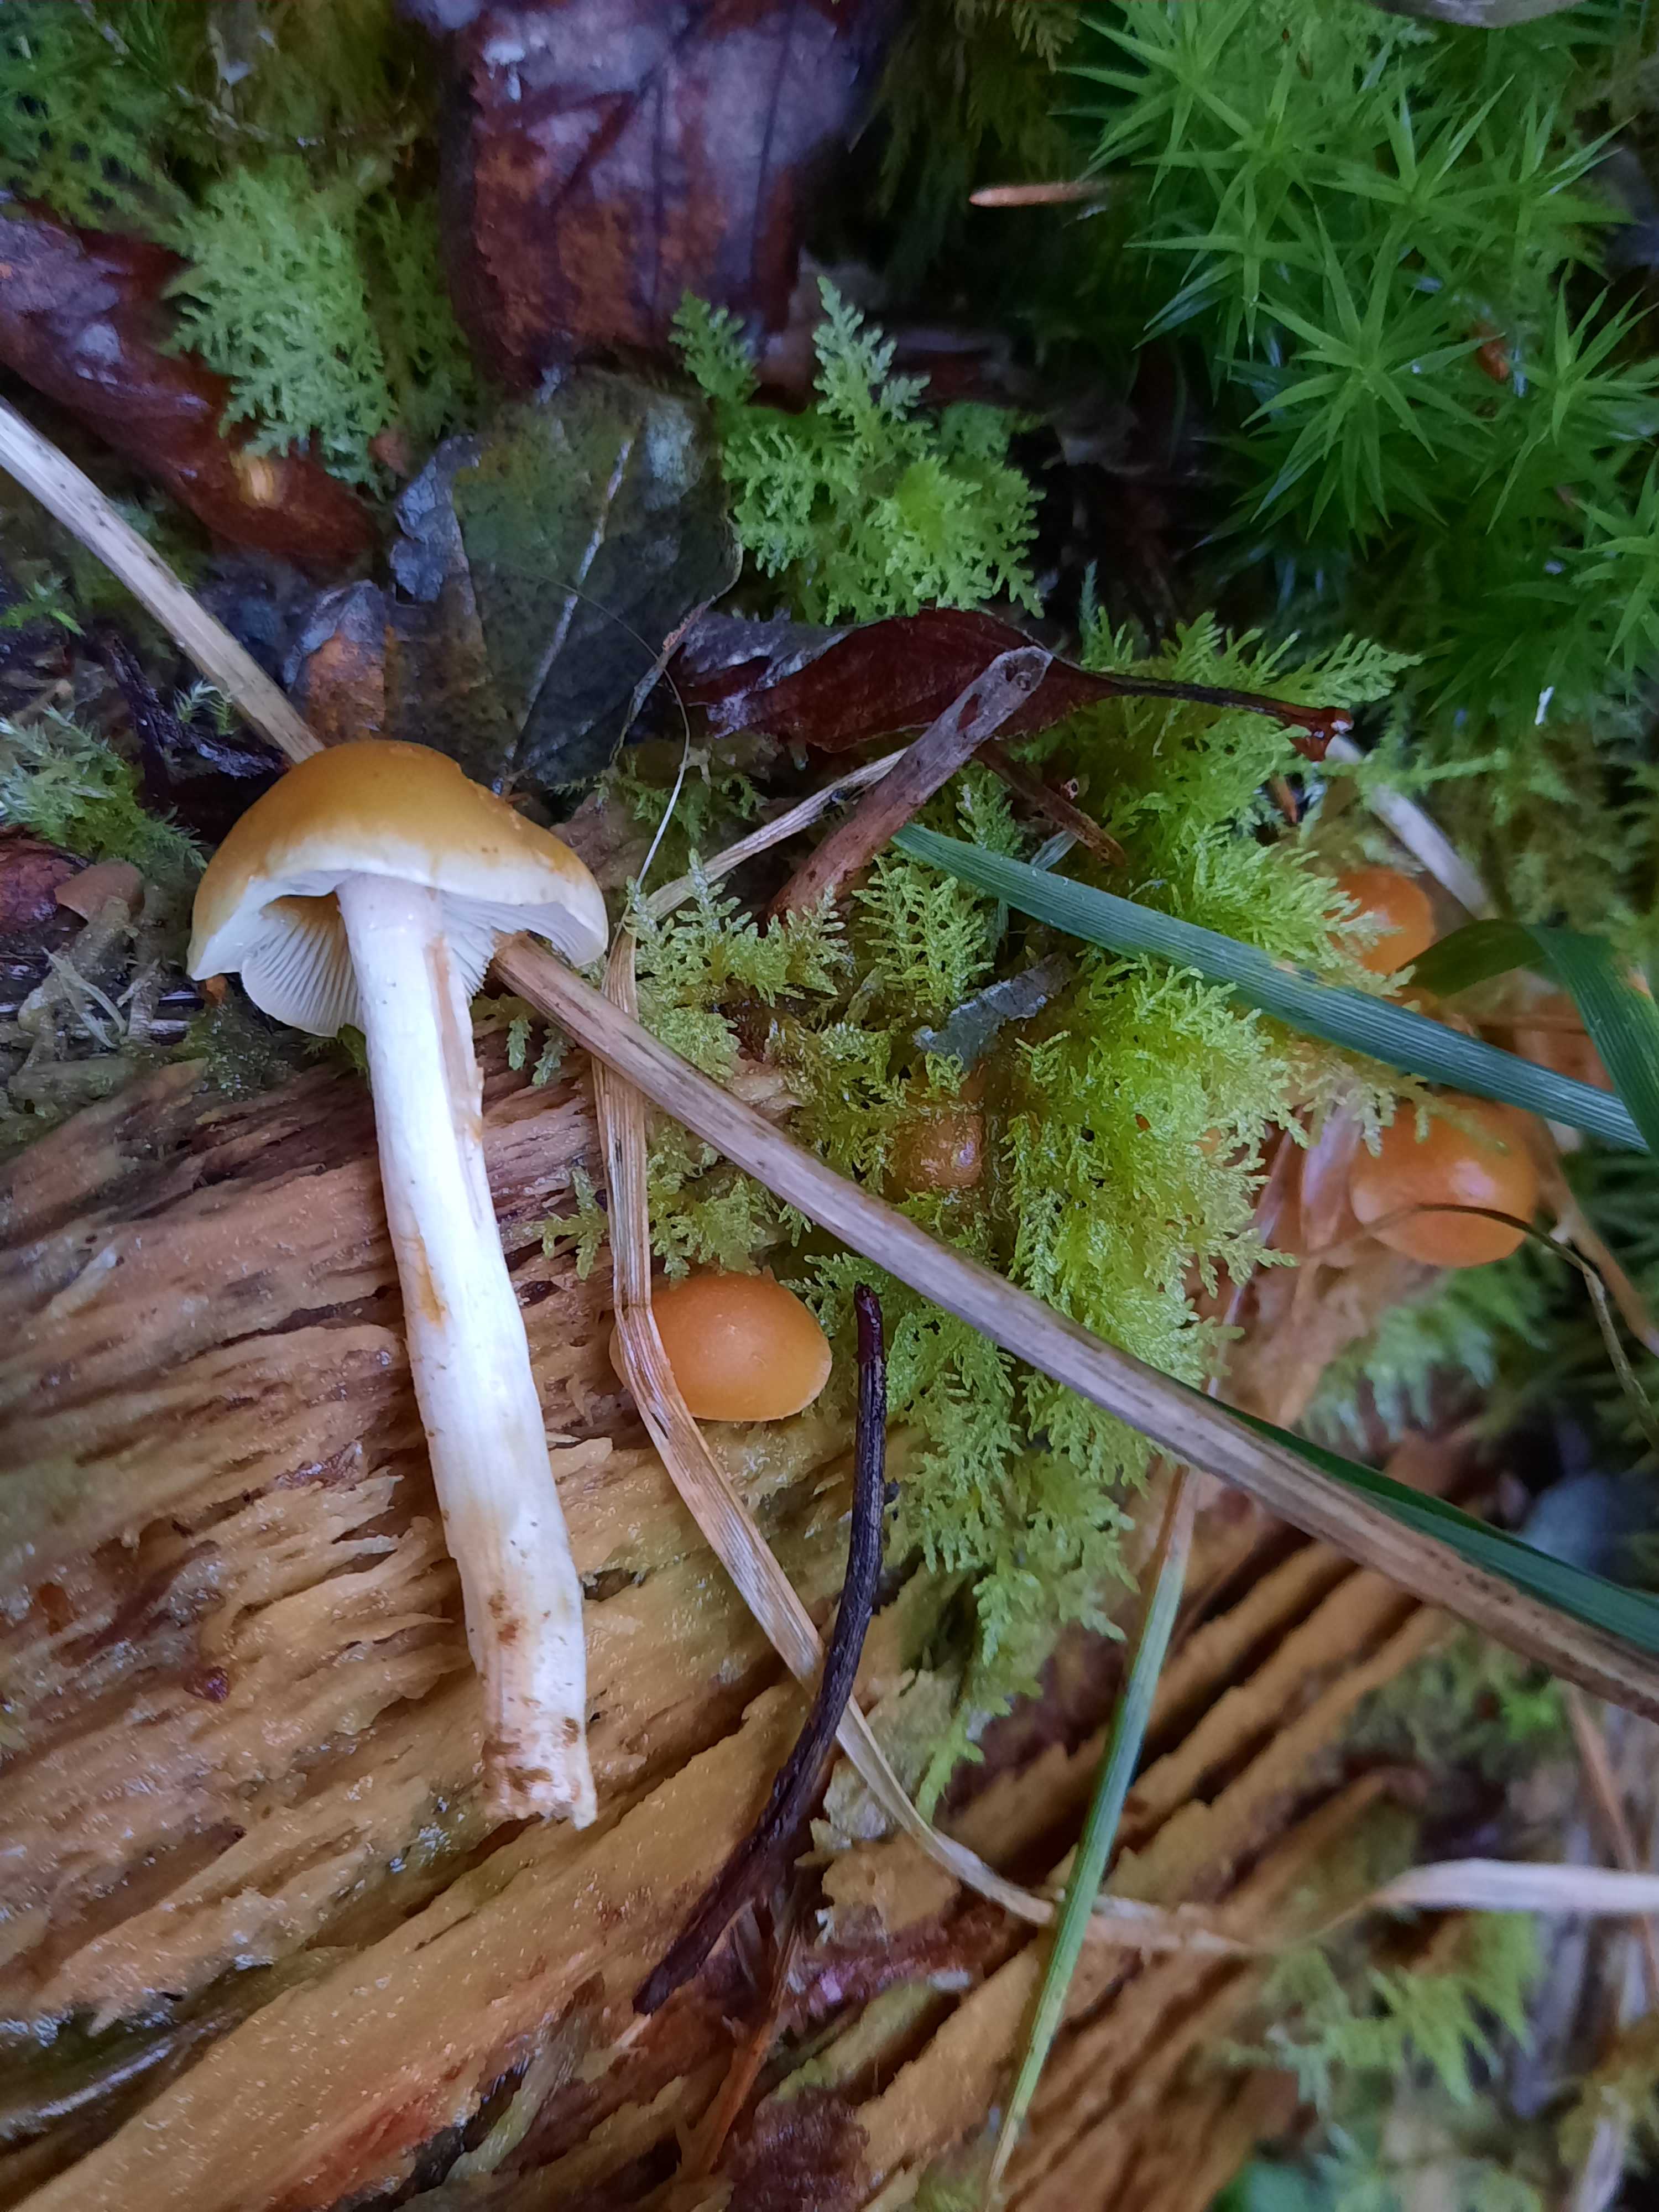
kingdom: Fungi
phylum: Basidiomycota
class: Agaricomycetes
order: Agaricales
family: Strophariaceae
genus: Hypholoma
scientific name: Hypholoma capnoides
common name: gran-svovlhat
